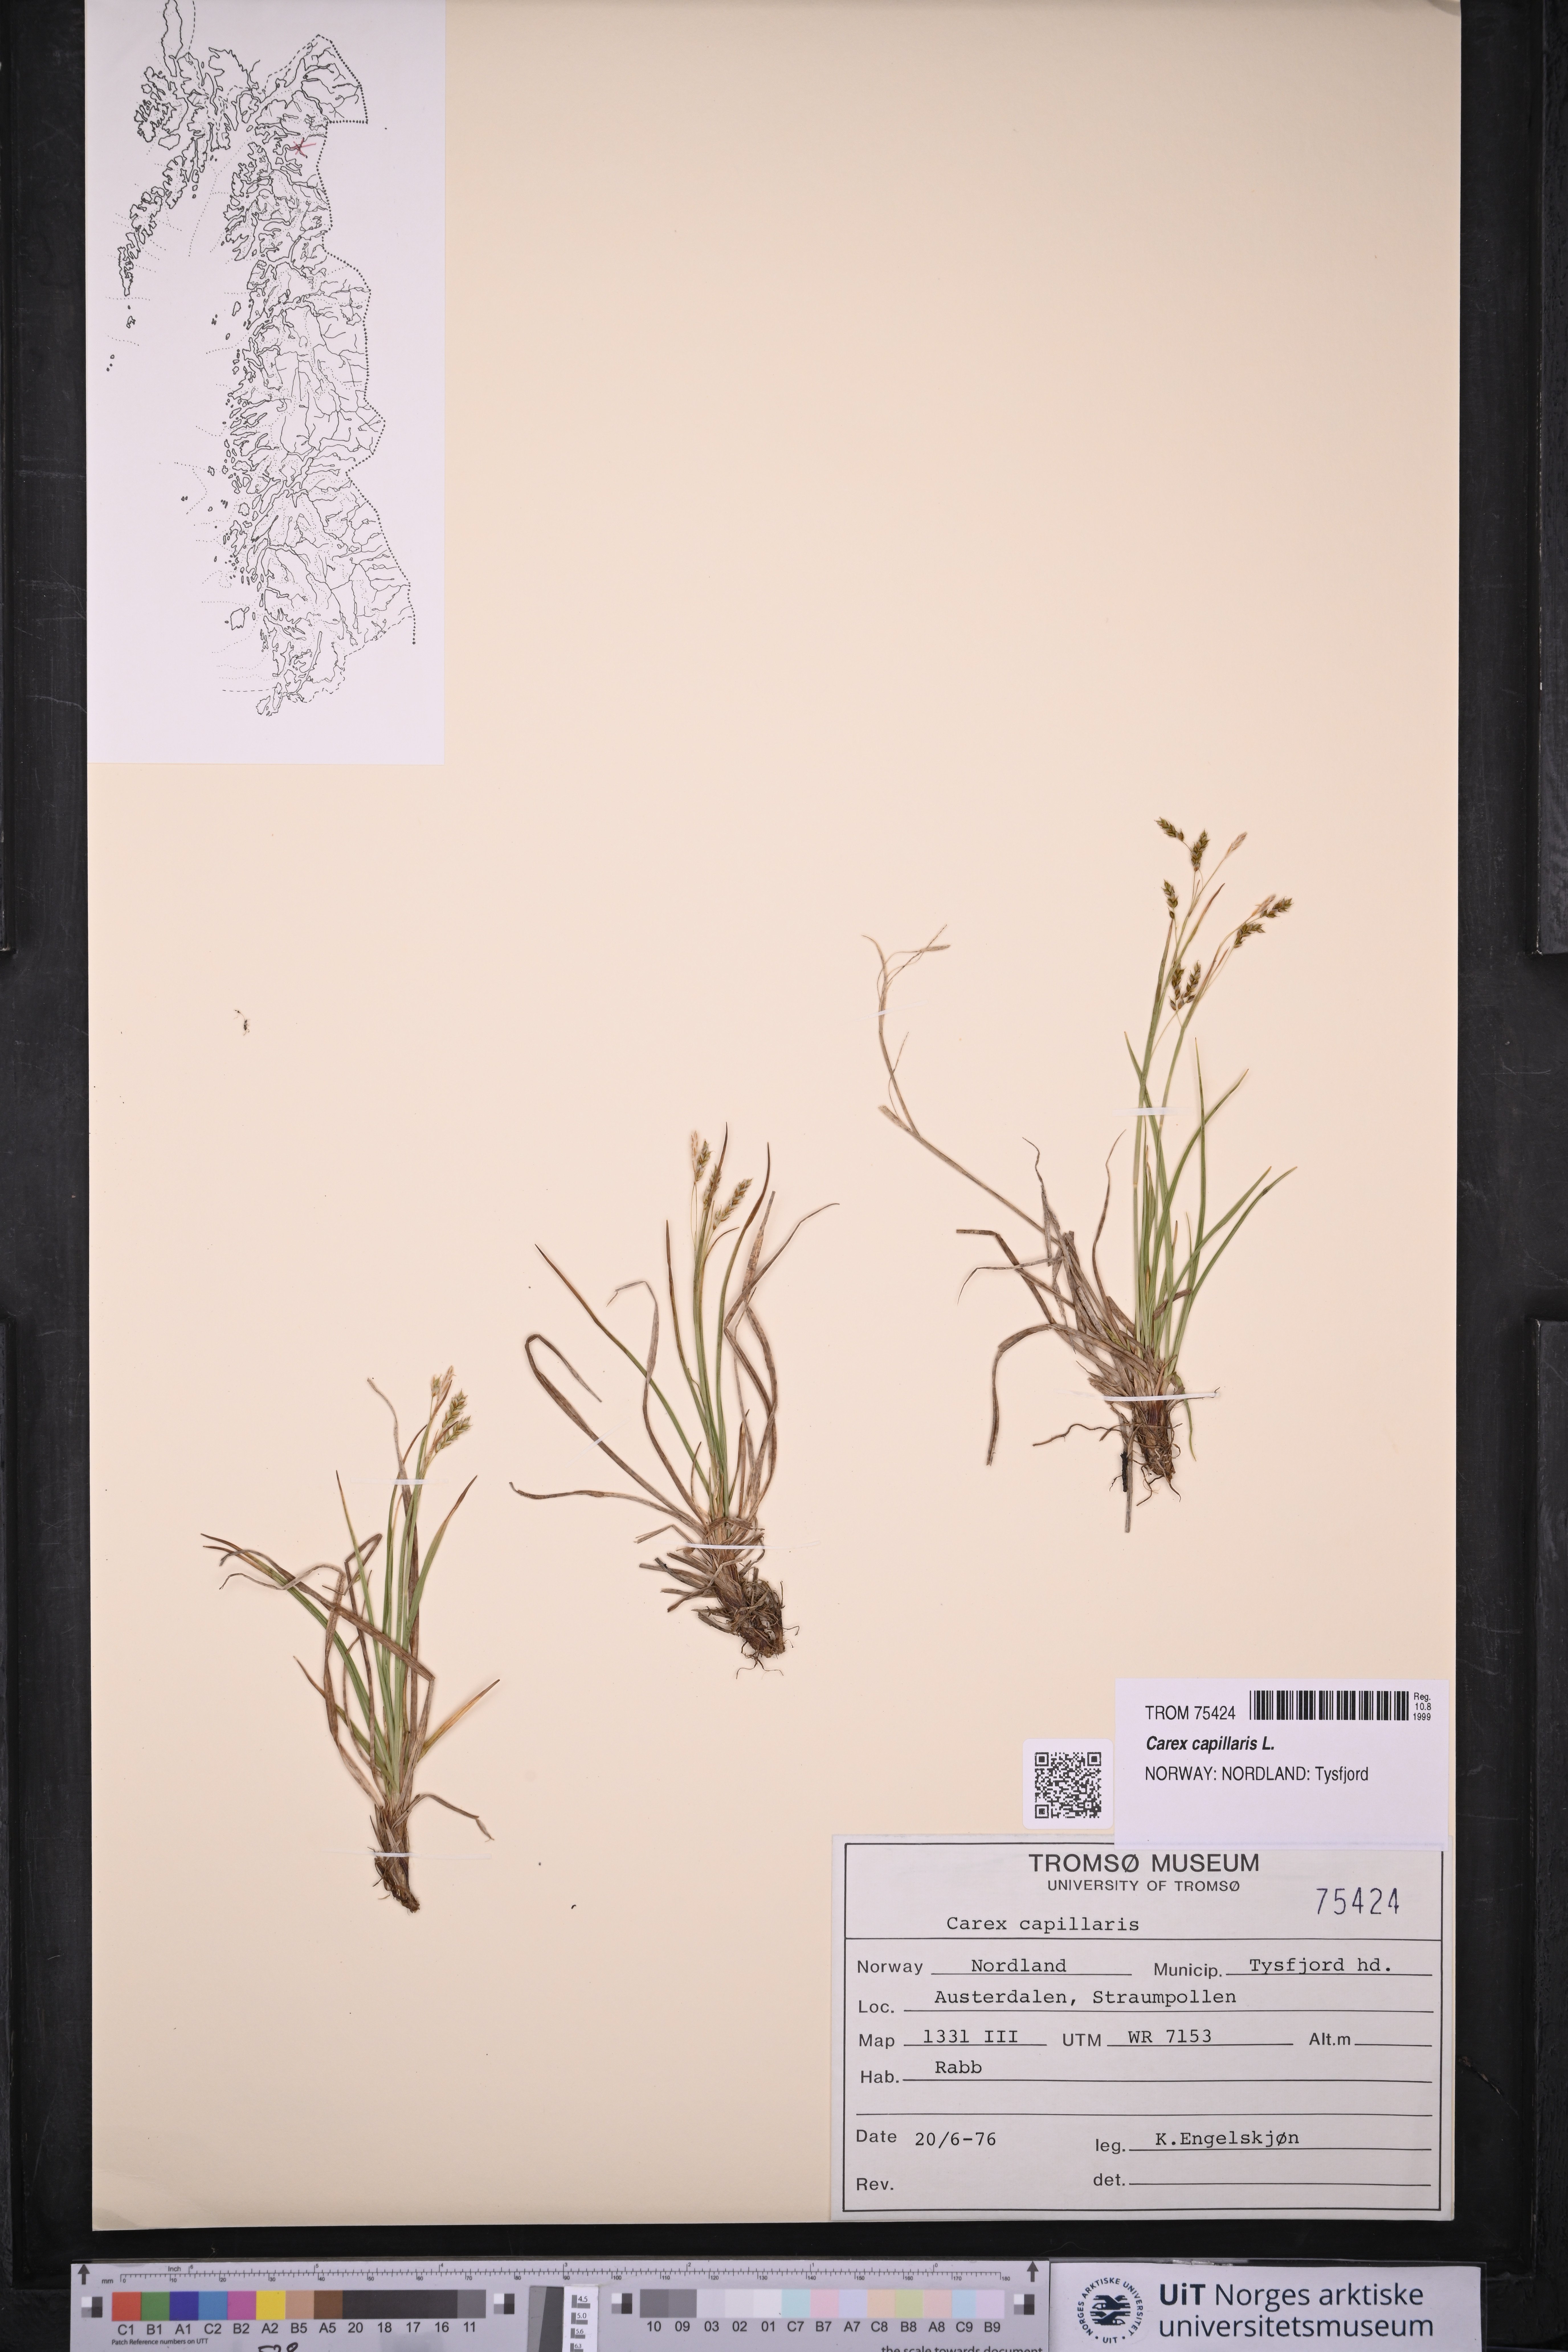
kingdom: Plantae
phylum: Tracheophyta
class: Liliopsida
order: Poales
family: Cyperaceae
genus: Carex
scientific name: Carex capillaris
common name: Hair sedge
